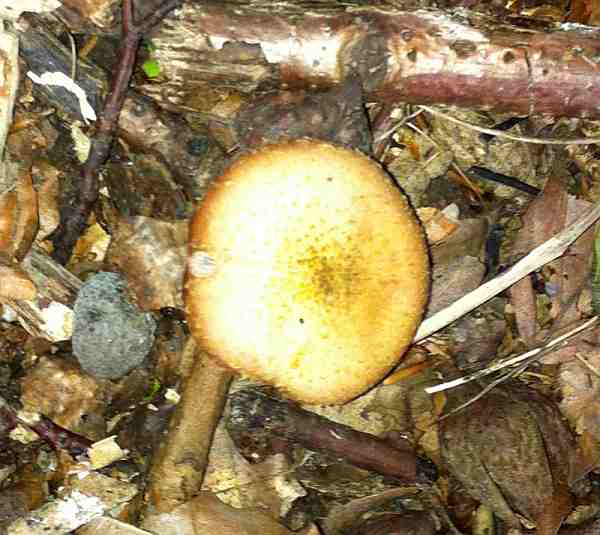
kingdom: Fungi
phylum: Basidiomycota
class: Agaricomycetes
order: Agaricales
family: Physalacriaceae
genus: Armillaria
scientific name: Armillaria lutea
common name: køllestokket honningsvamp
